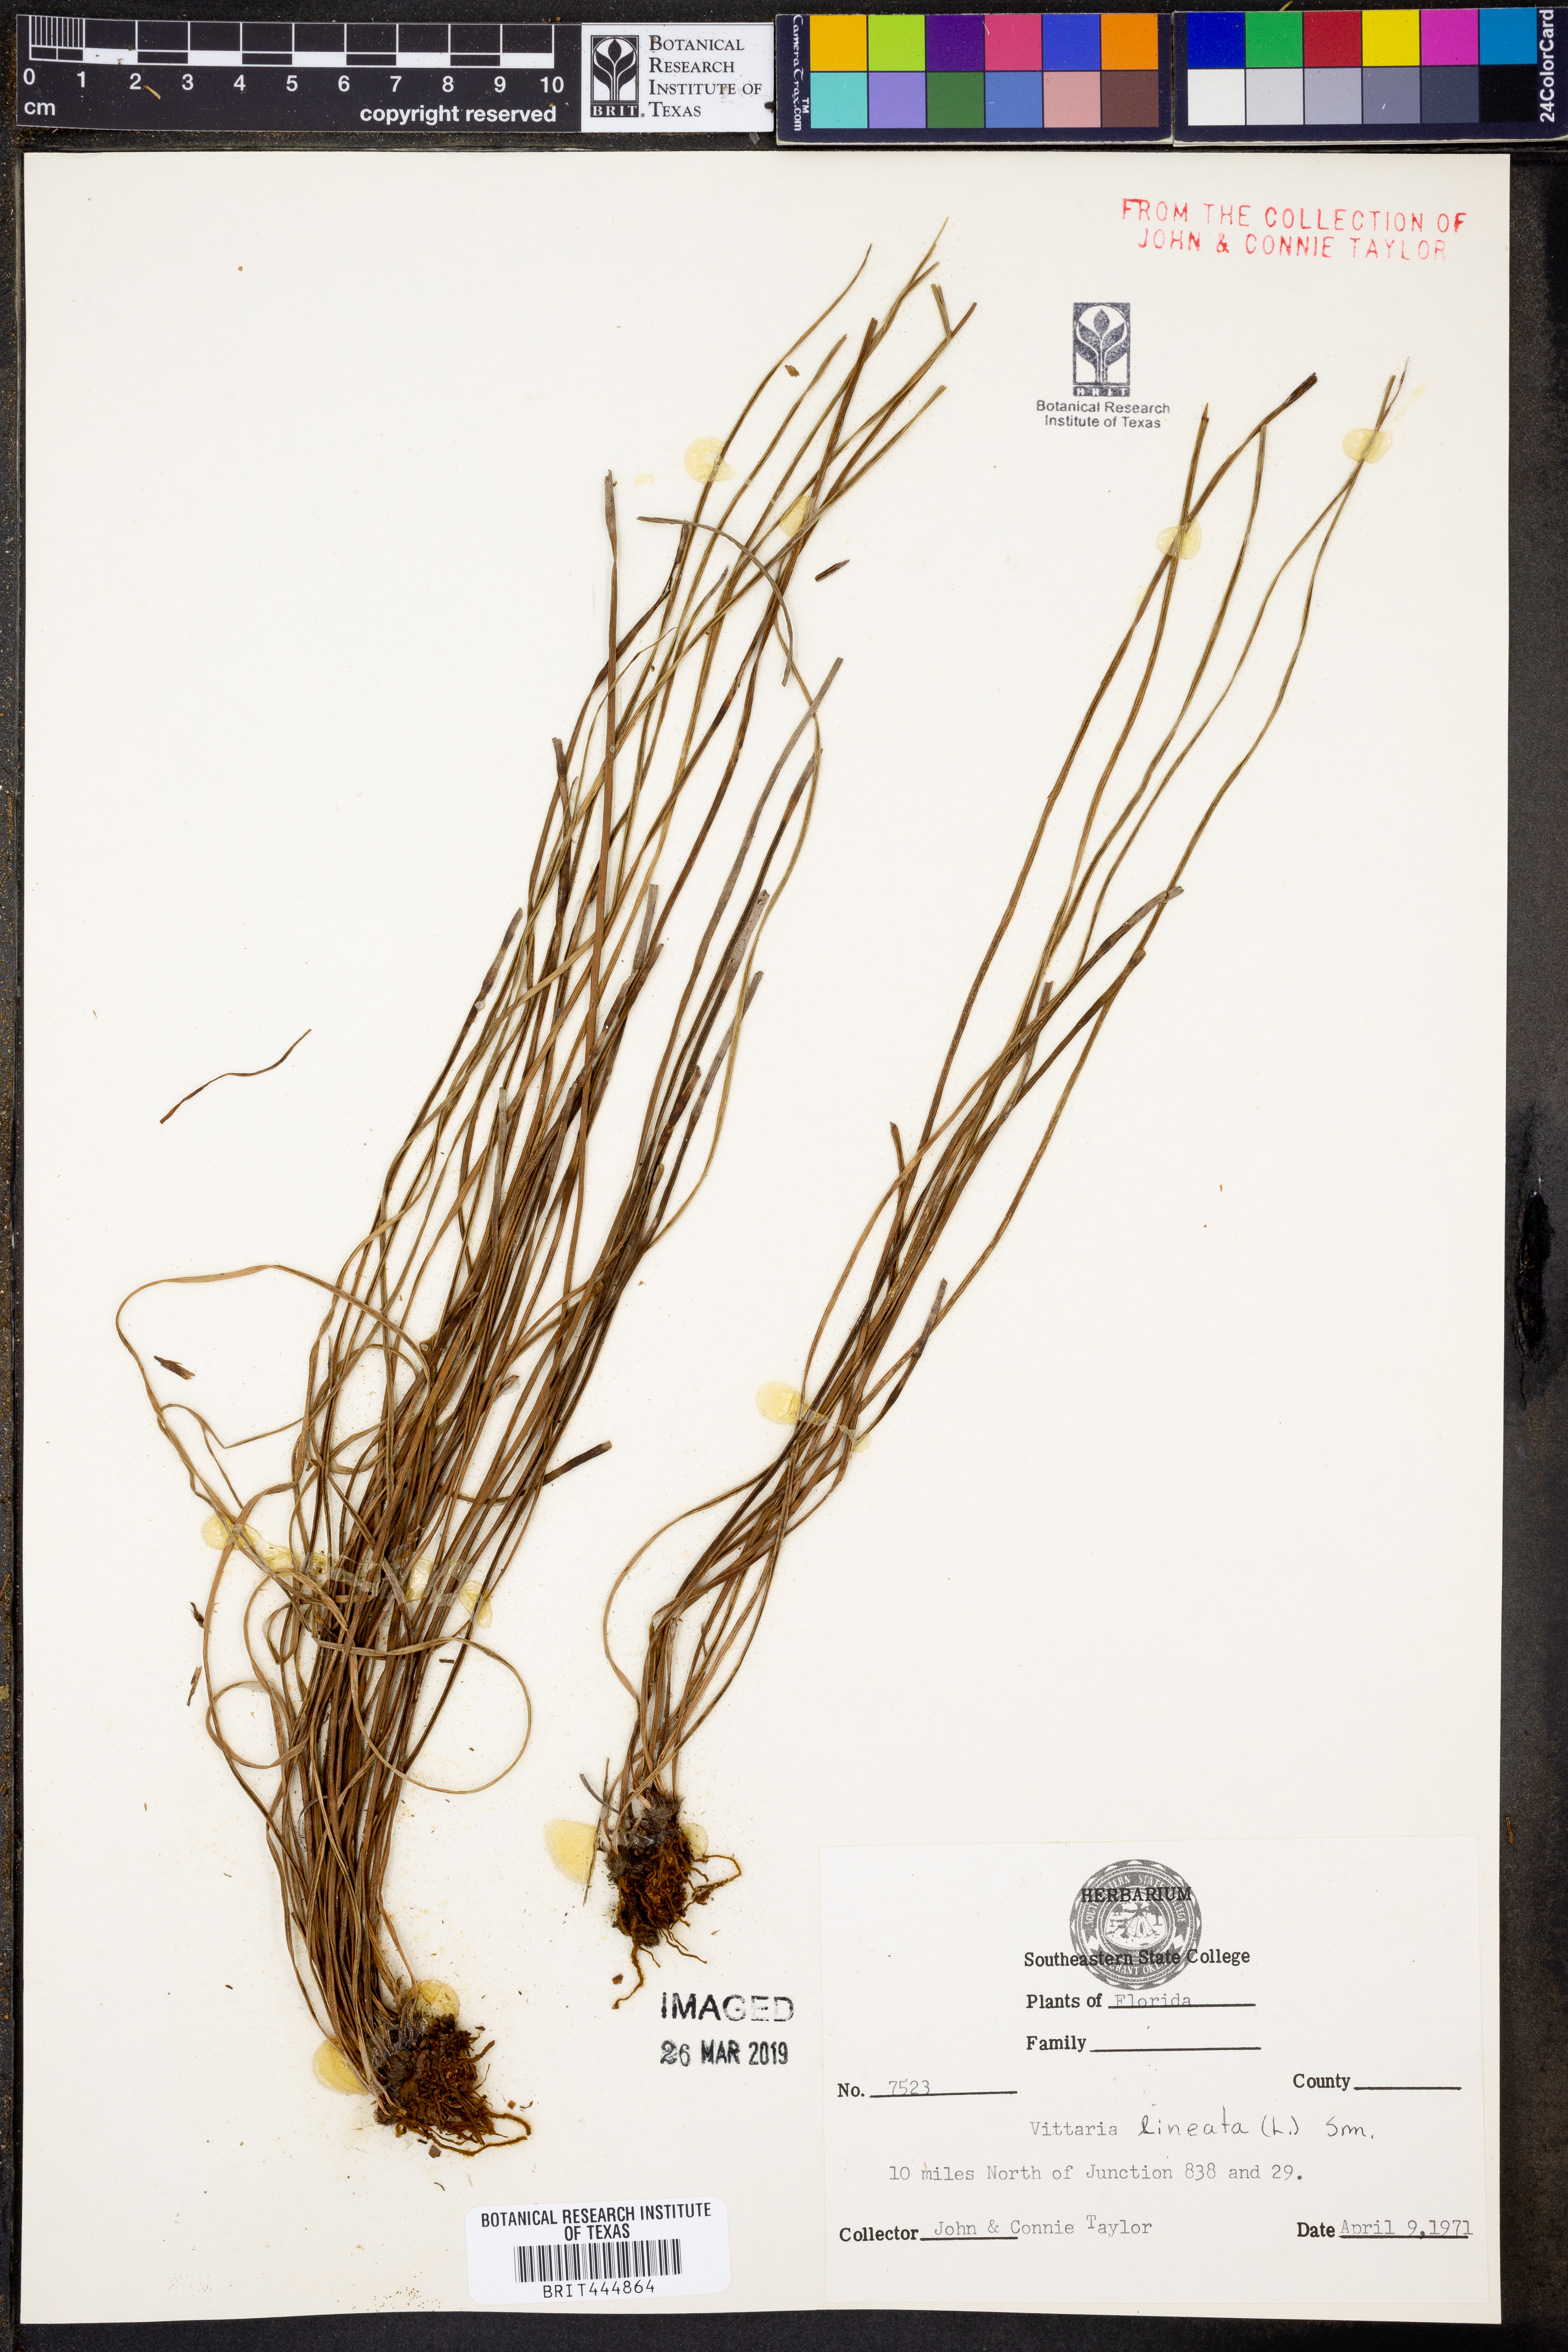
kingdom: Plantae
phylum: Tracheophyta
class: Polypodiopsida
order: Polypodiales
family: Pteridaceae
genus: Vittaria
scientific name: Vittaria lineata
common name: Shoestring fern
